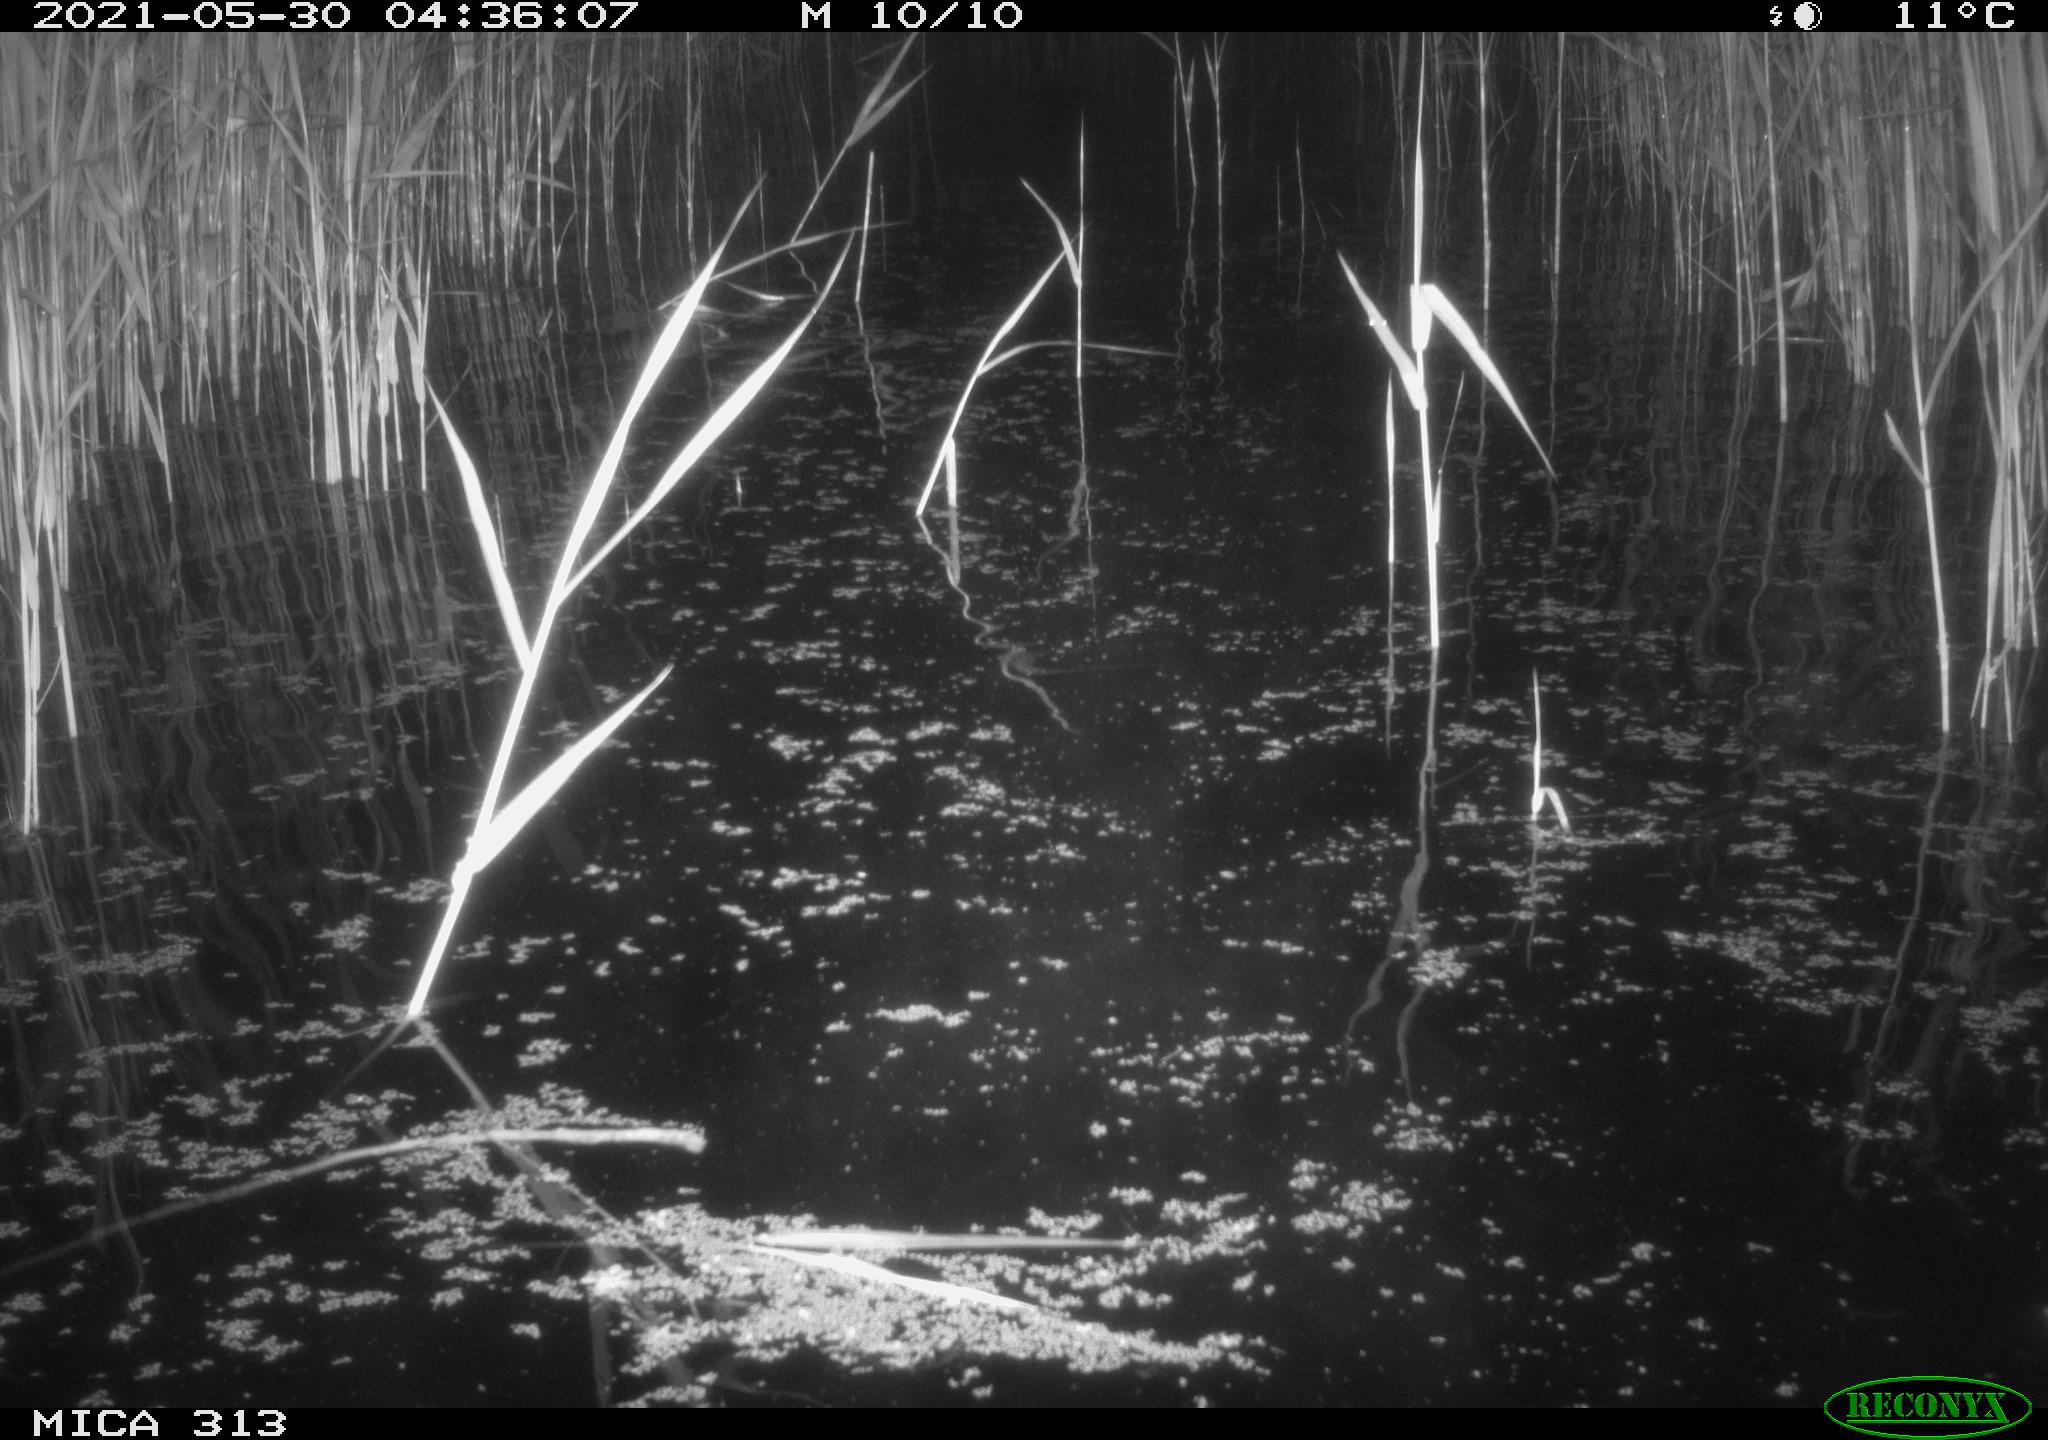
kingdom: Animalia
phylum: Chordata
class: Aves
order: Anseriformes
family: Anatidae
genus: Mareca
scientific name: Mareca strepera
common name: Gadwall
